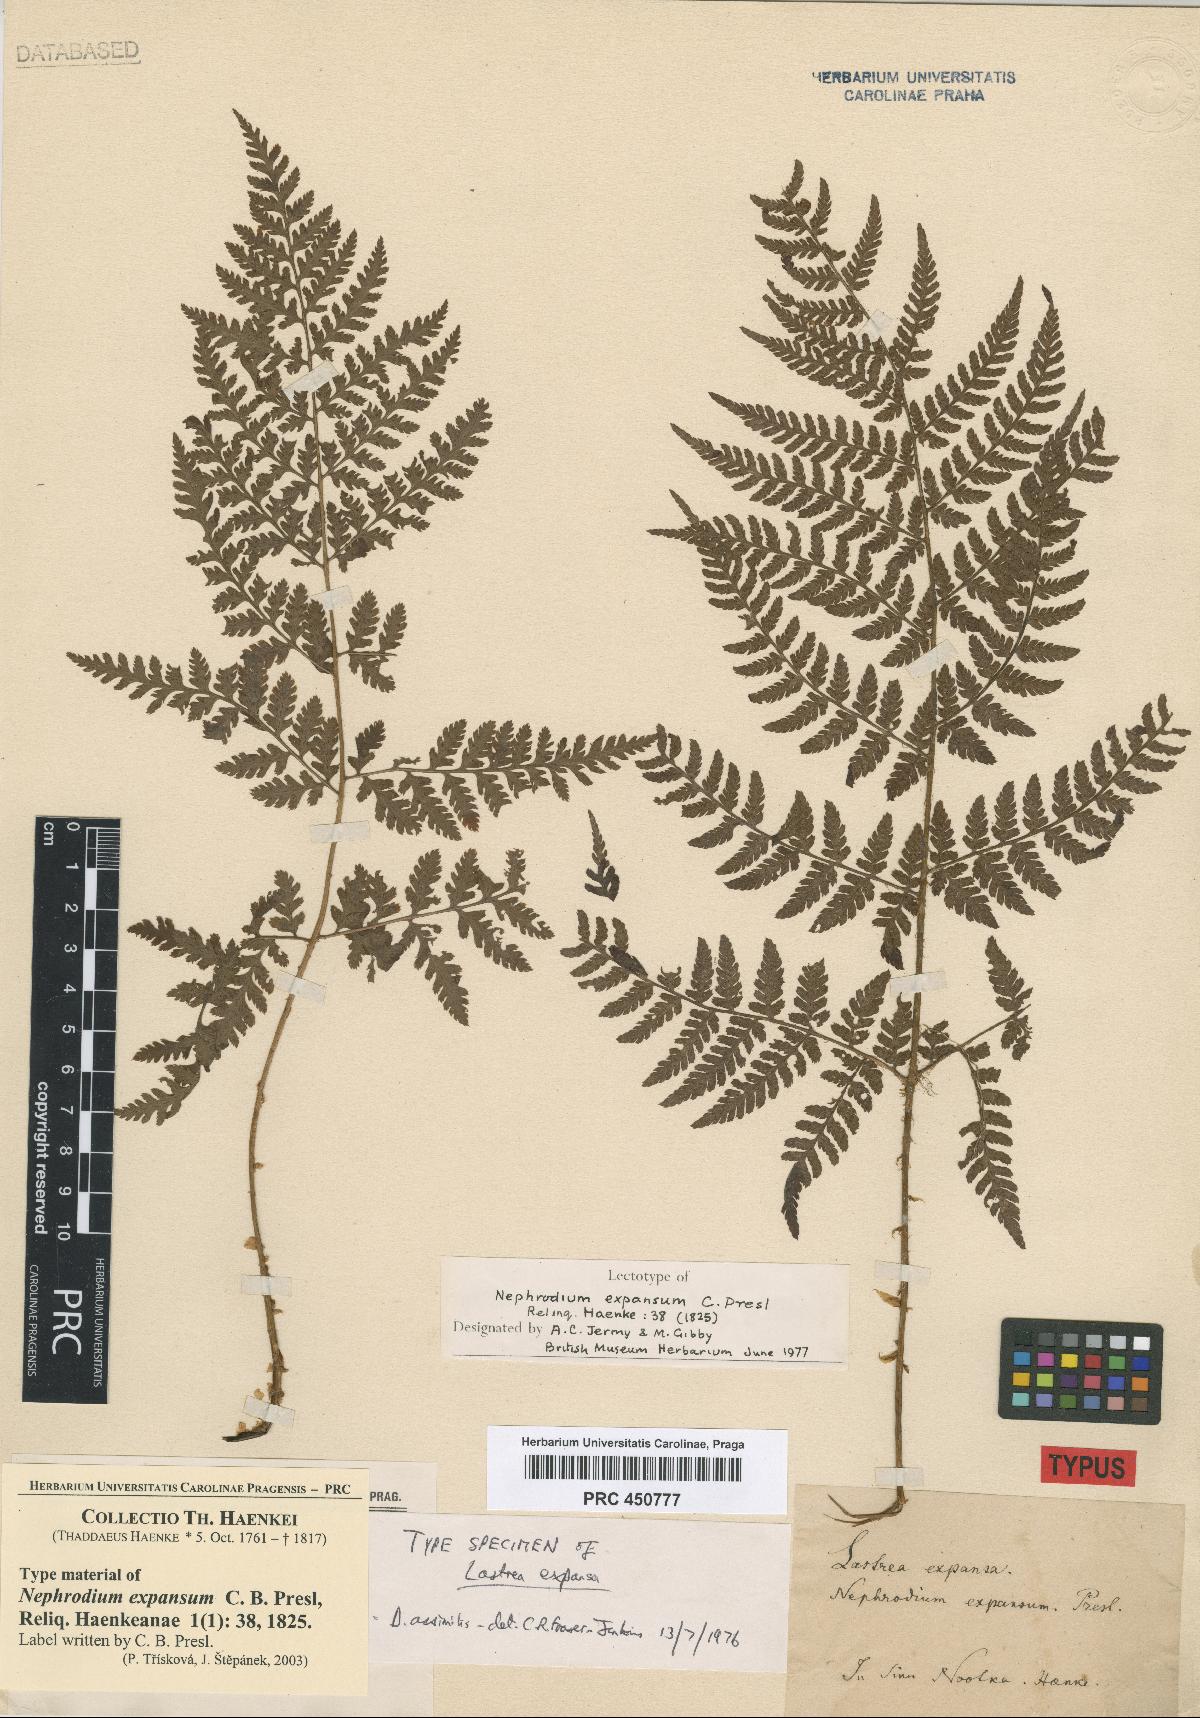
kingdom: Plantae
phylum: Tracheophyta
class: Polypodiopsida
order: Polypodiales
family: Dryopteridaceae
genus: Dryopteris
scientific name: Dryopteris expansa
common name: Northern buckler fern
